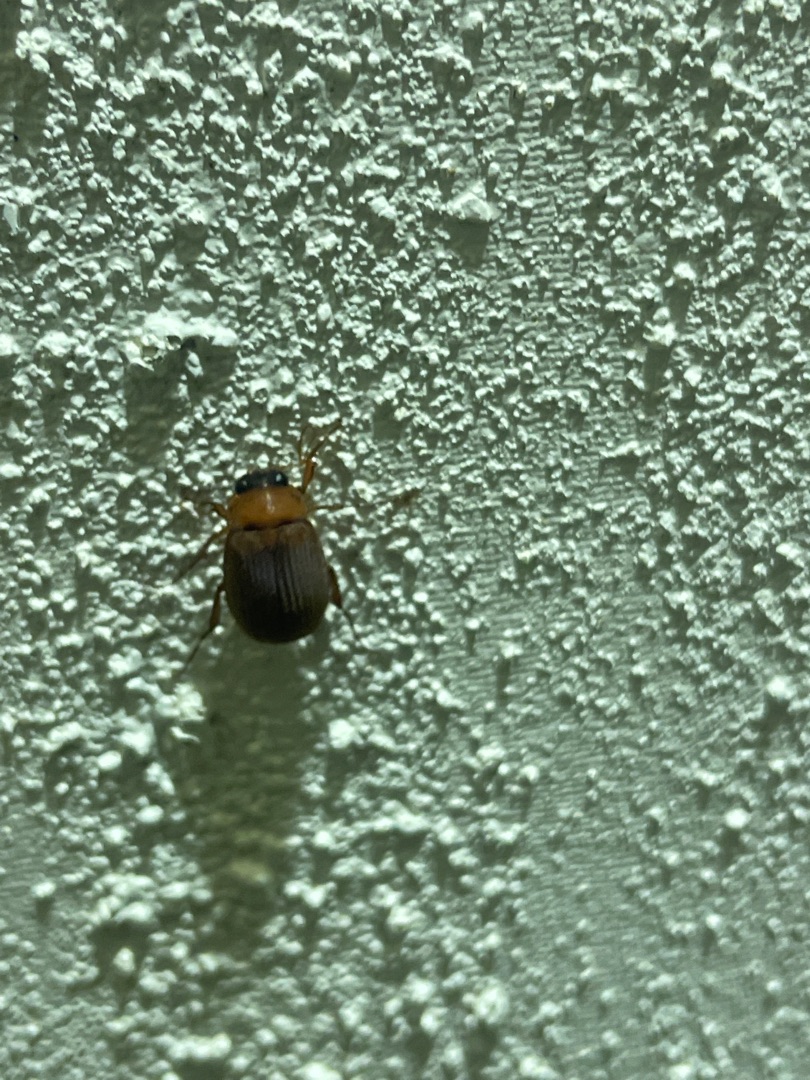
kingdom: Animalia
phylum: Arthropoda
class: Insecta
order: Coleoptera
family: Scarabaeidae
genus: Serica
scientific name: Serica brunnea
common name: Natoldenborre
